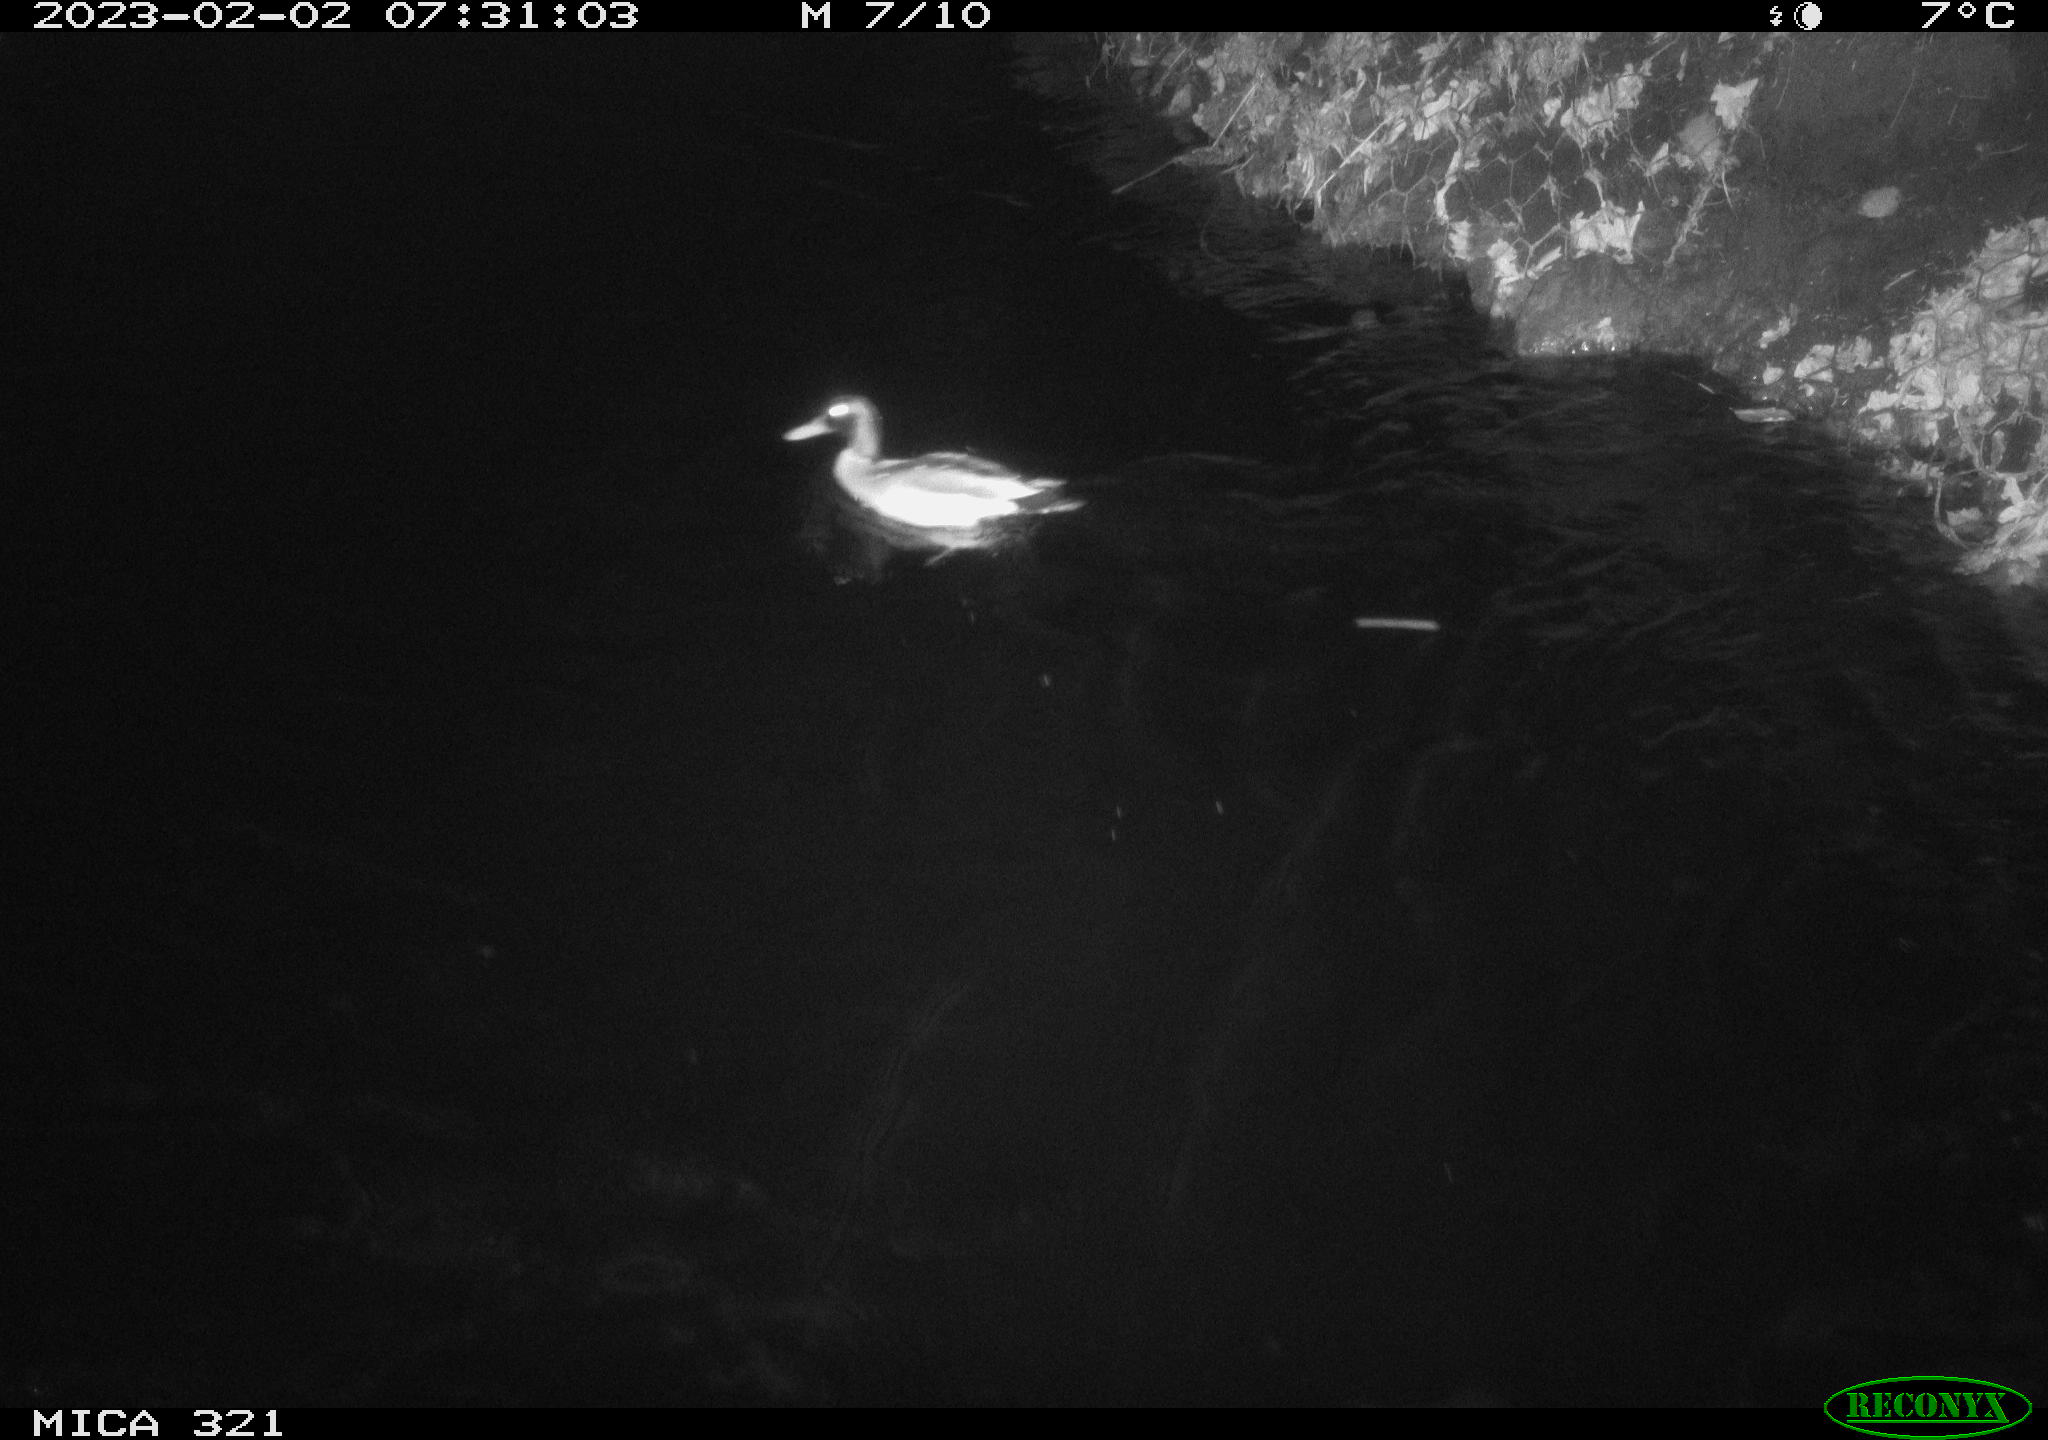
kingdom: Animalia
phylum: Chordata
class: Mammalia
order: Rodentia
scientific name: Rodentia
